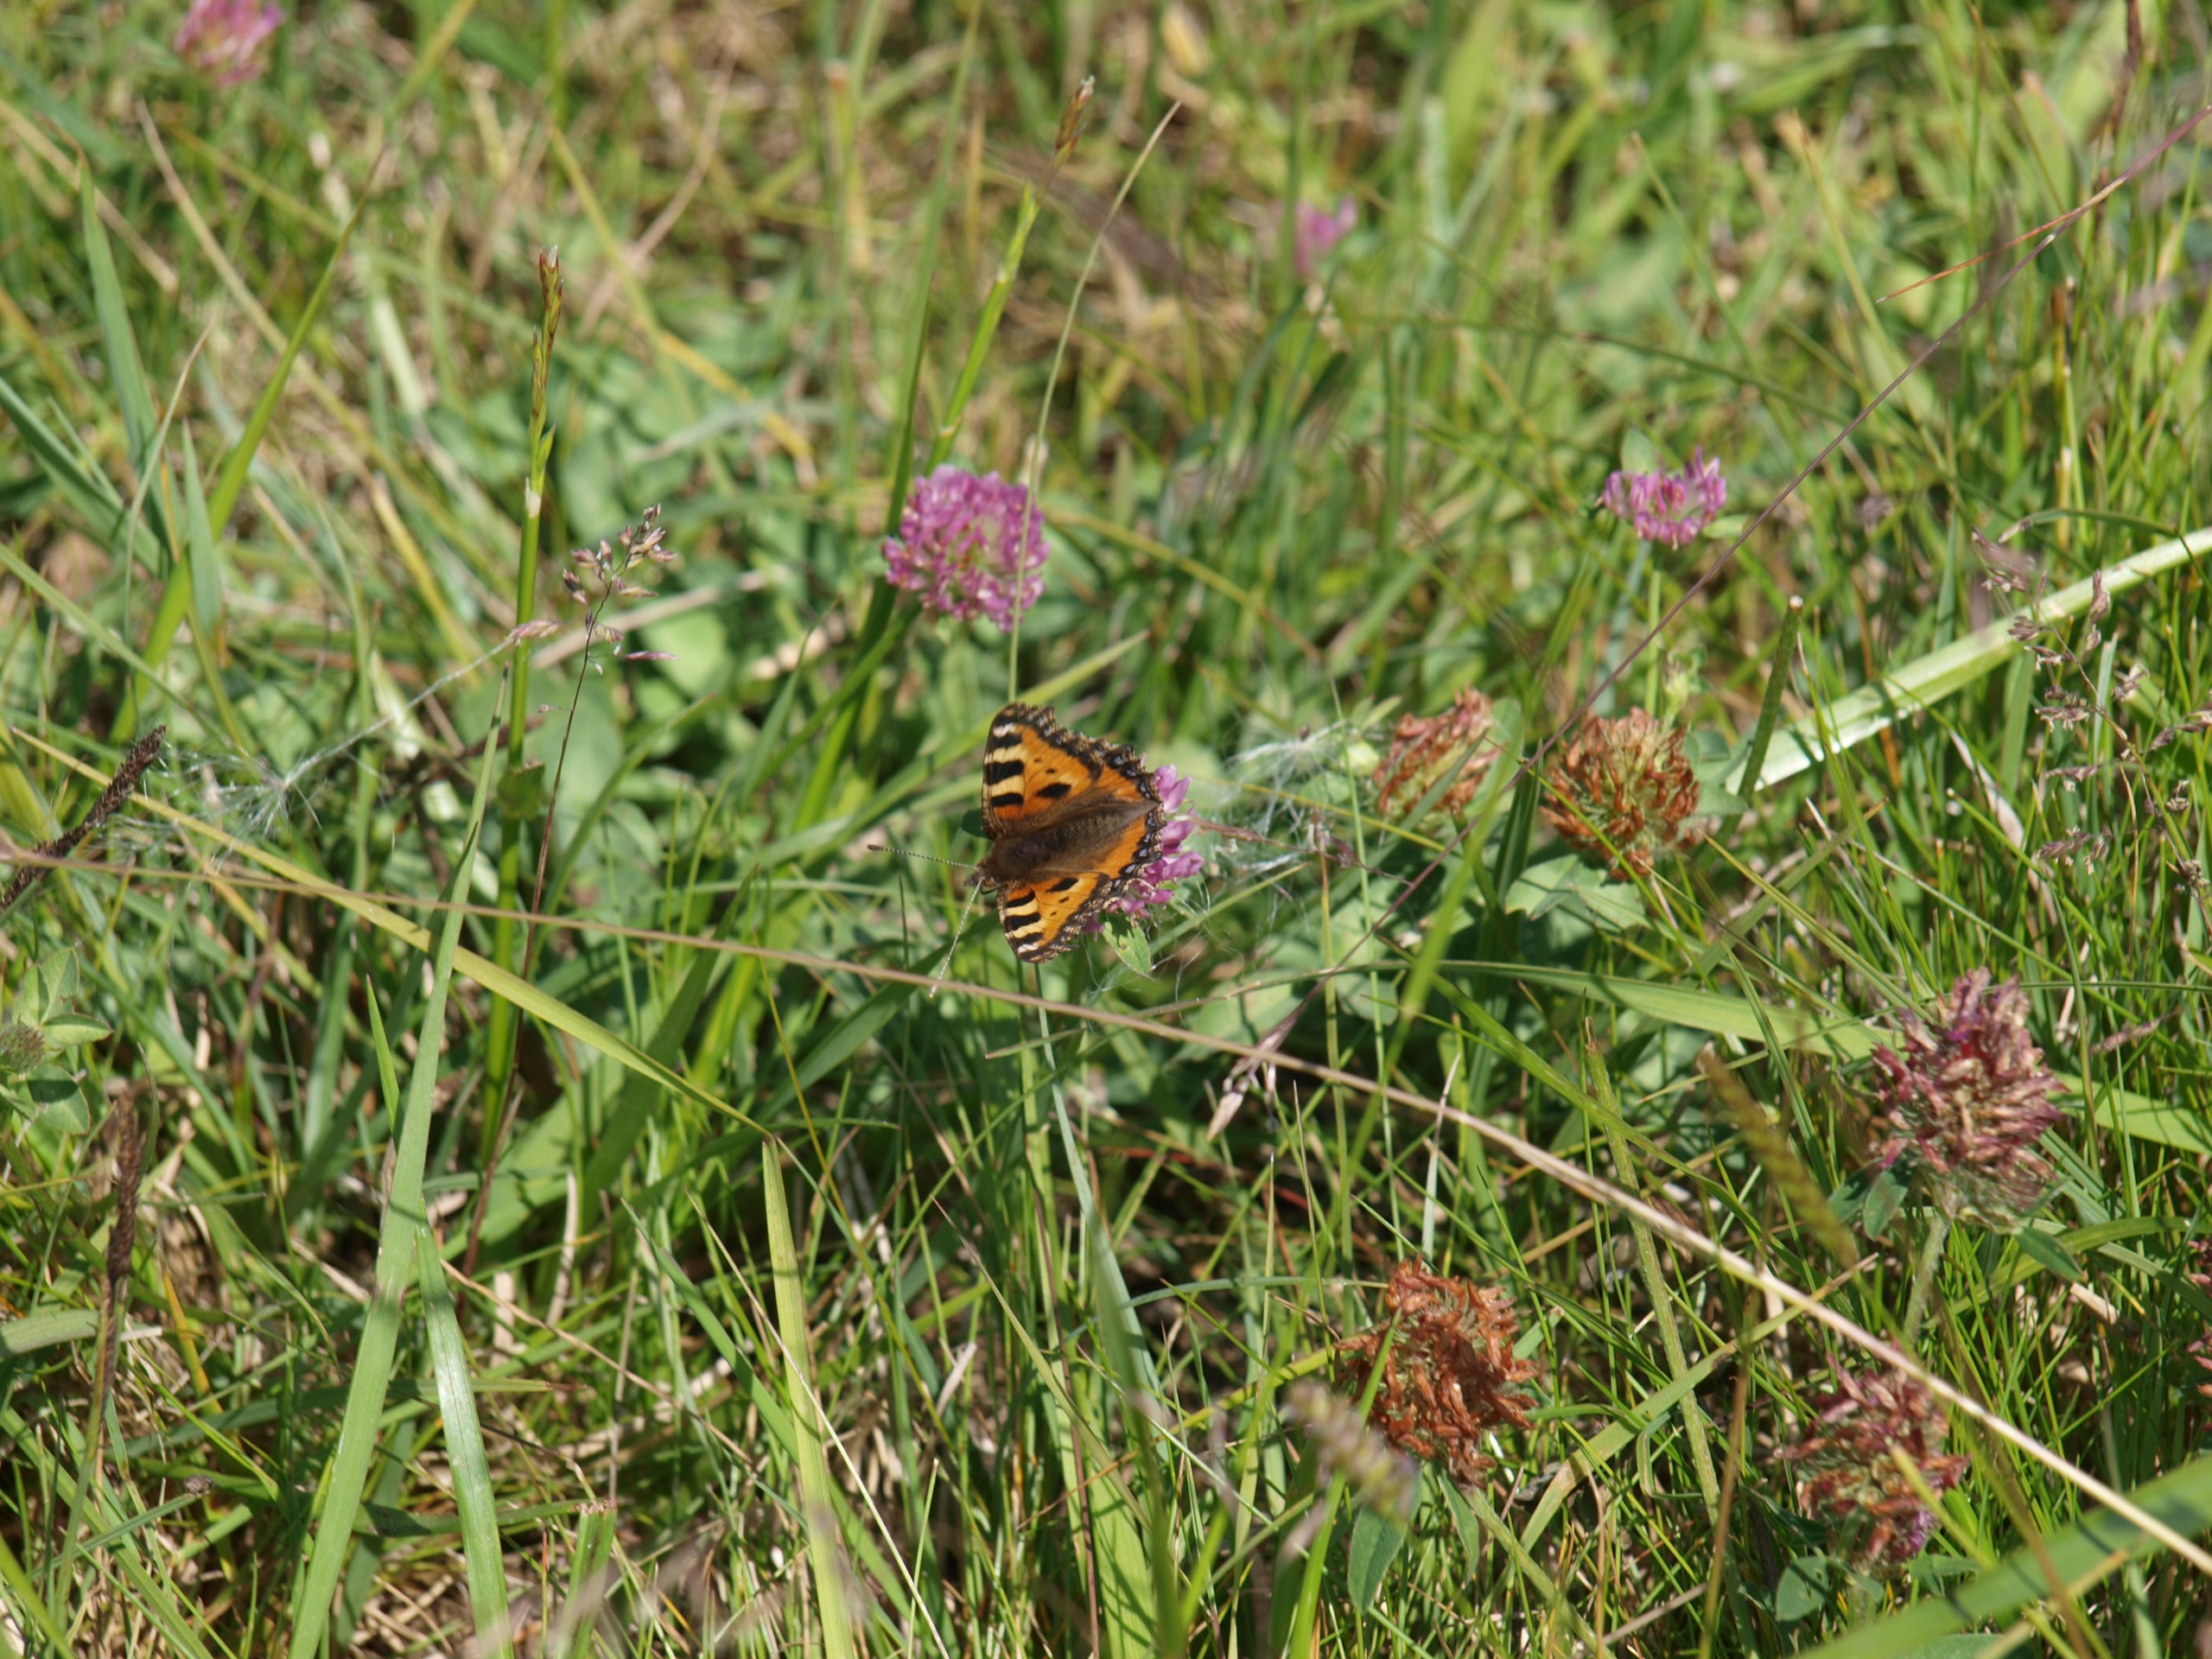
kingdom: Animalia
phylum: Arthropoda
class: Insecta
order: Lepidoptera
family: Nymphalidae
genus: Aglais
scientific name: Aglais urticae
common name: Nældens takvinge
